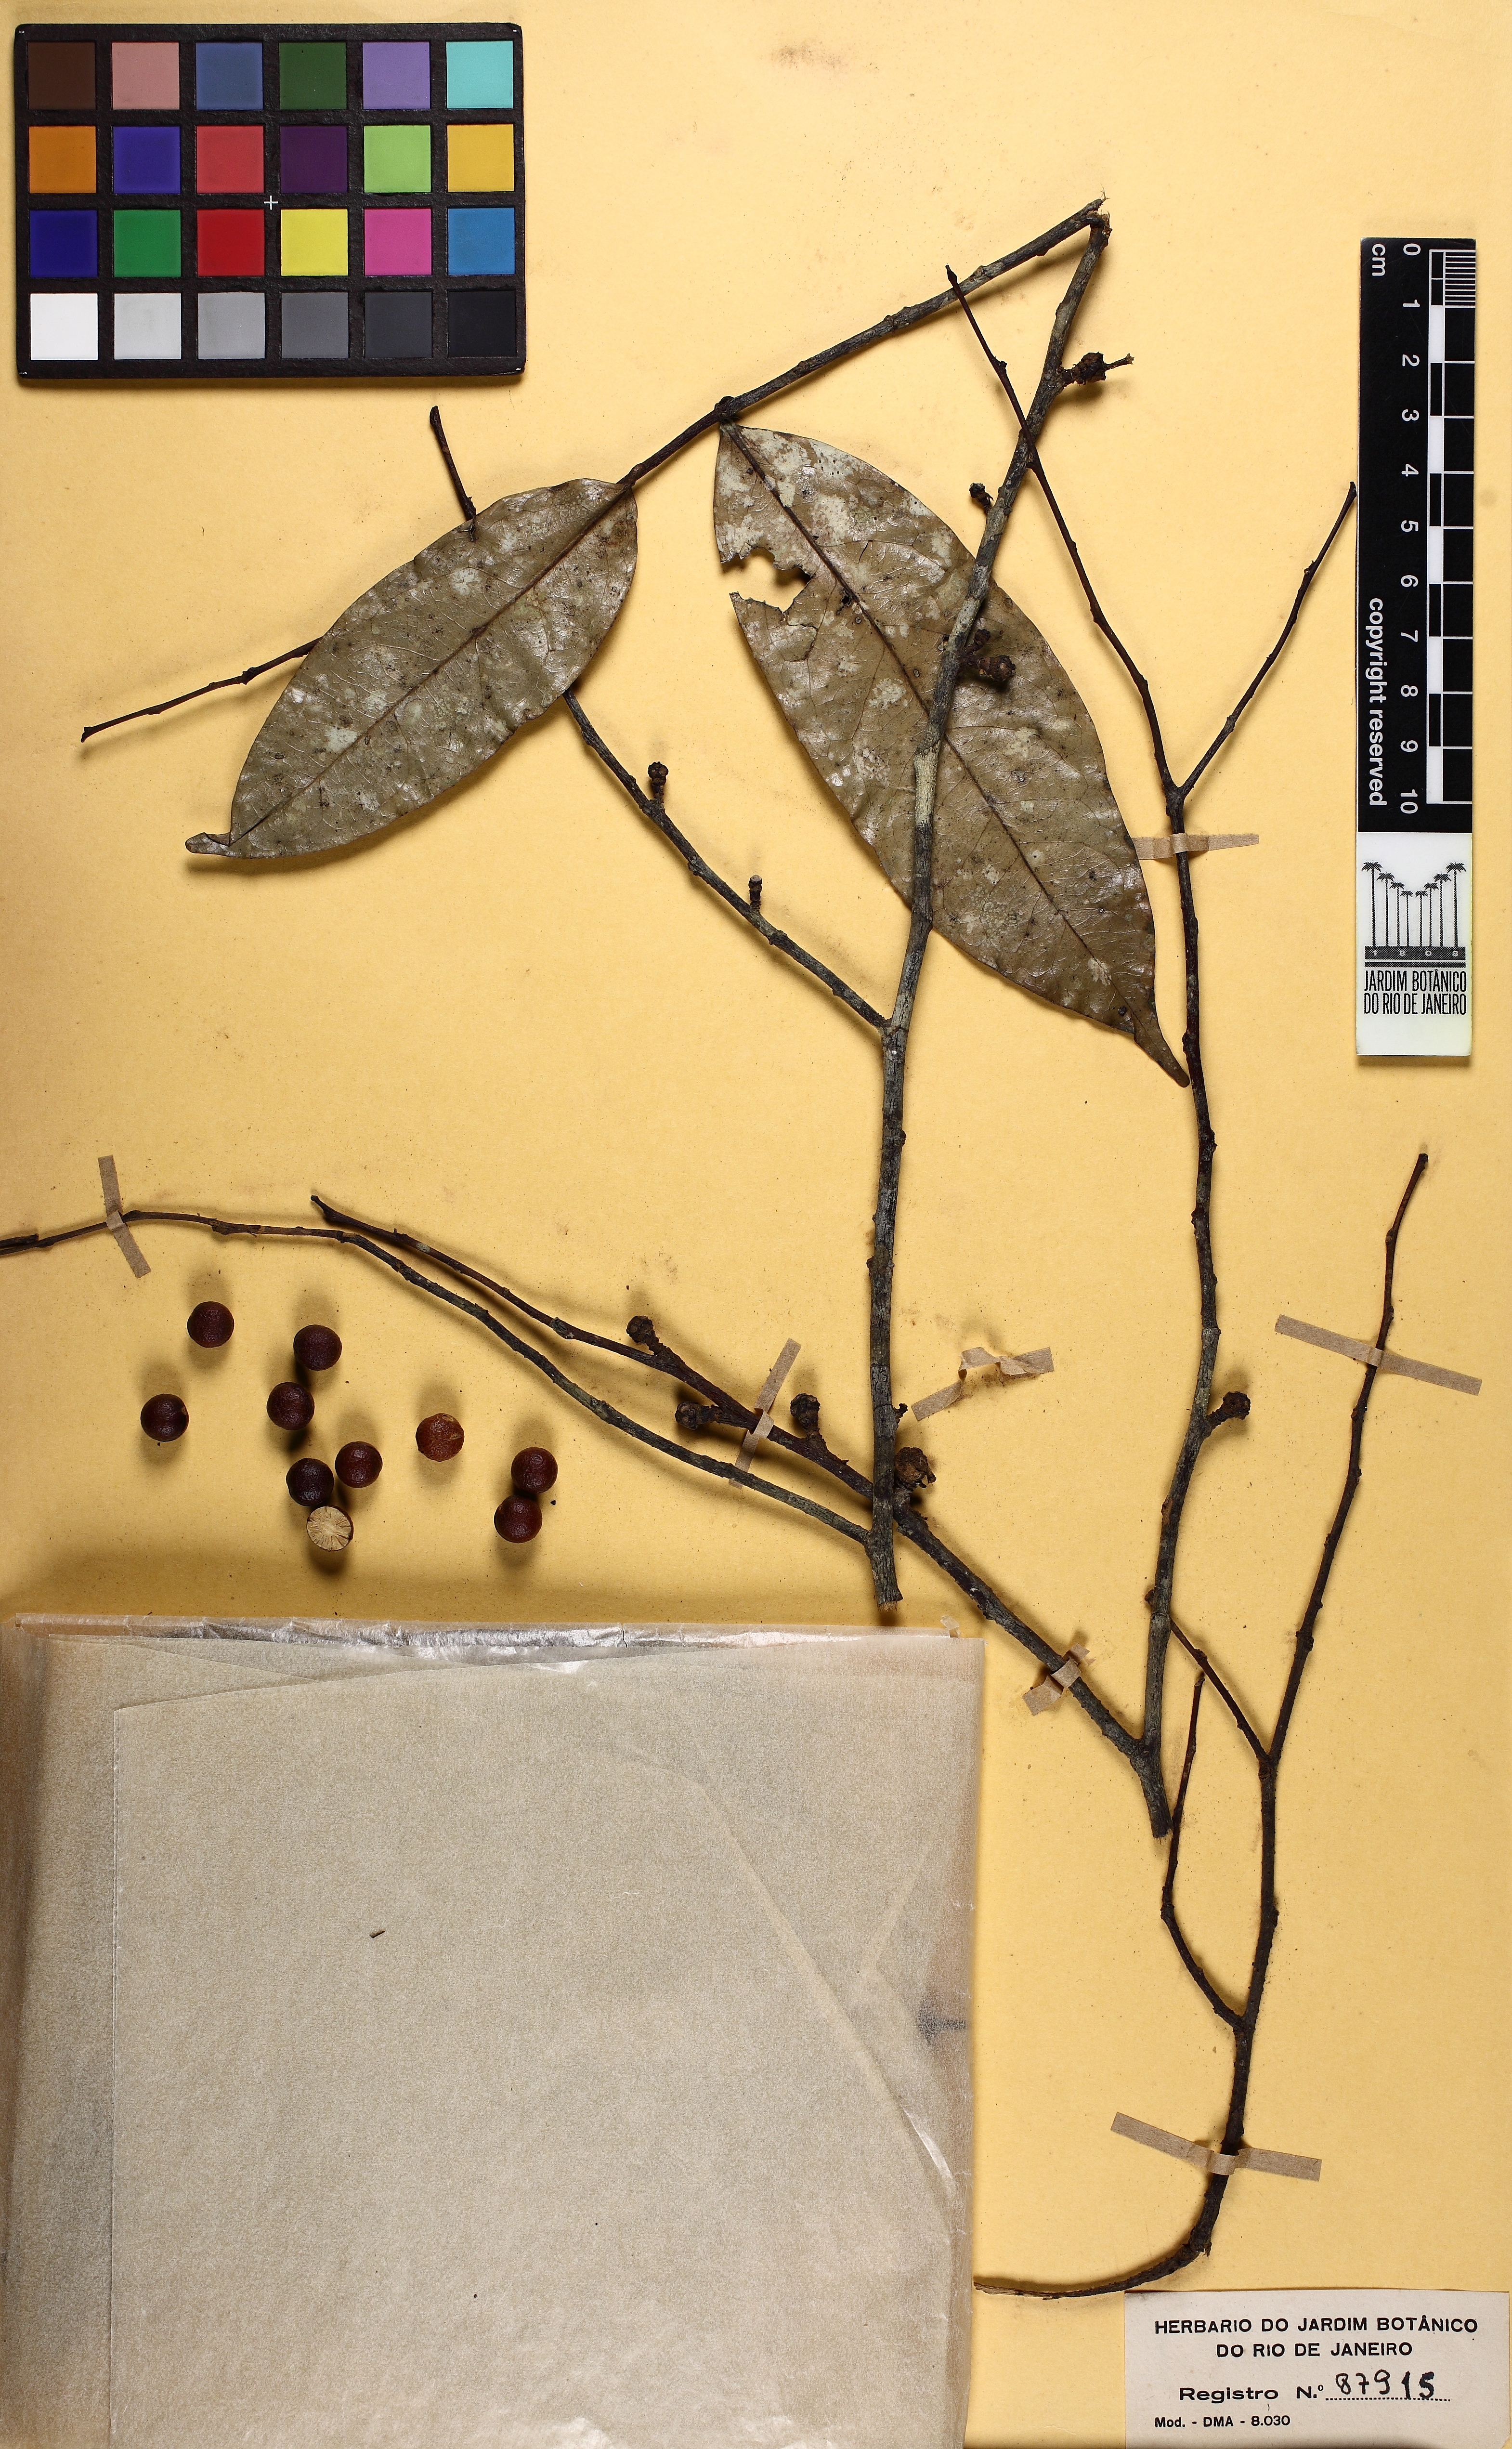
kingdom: Plantae
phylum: Tracheophyta
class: Magnoliopsida
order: Magnoliales
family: Annonaceae
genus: Pseudoxandra
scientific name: Pseudoxandra
